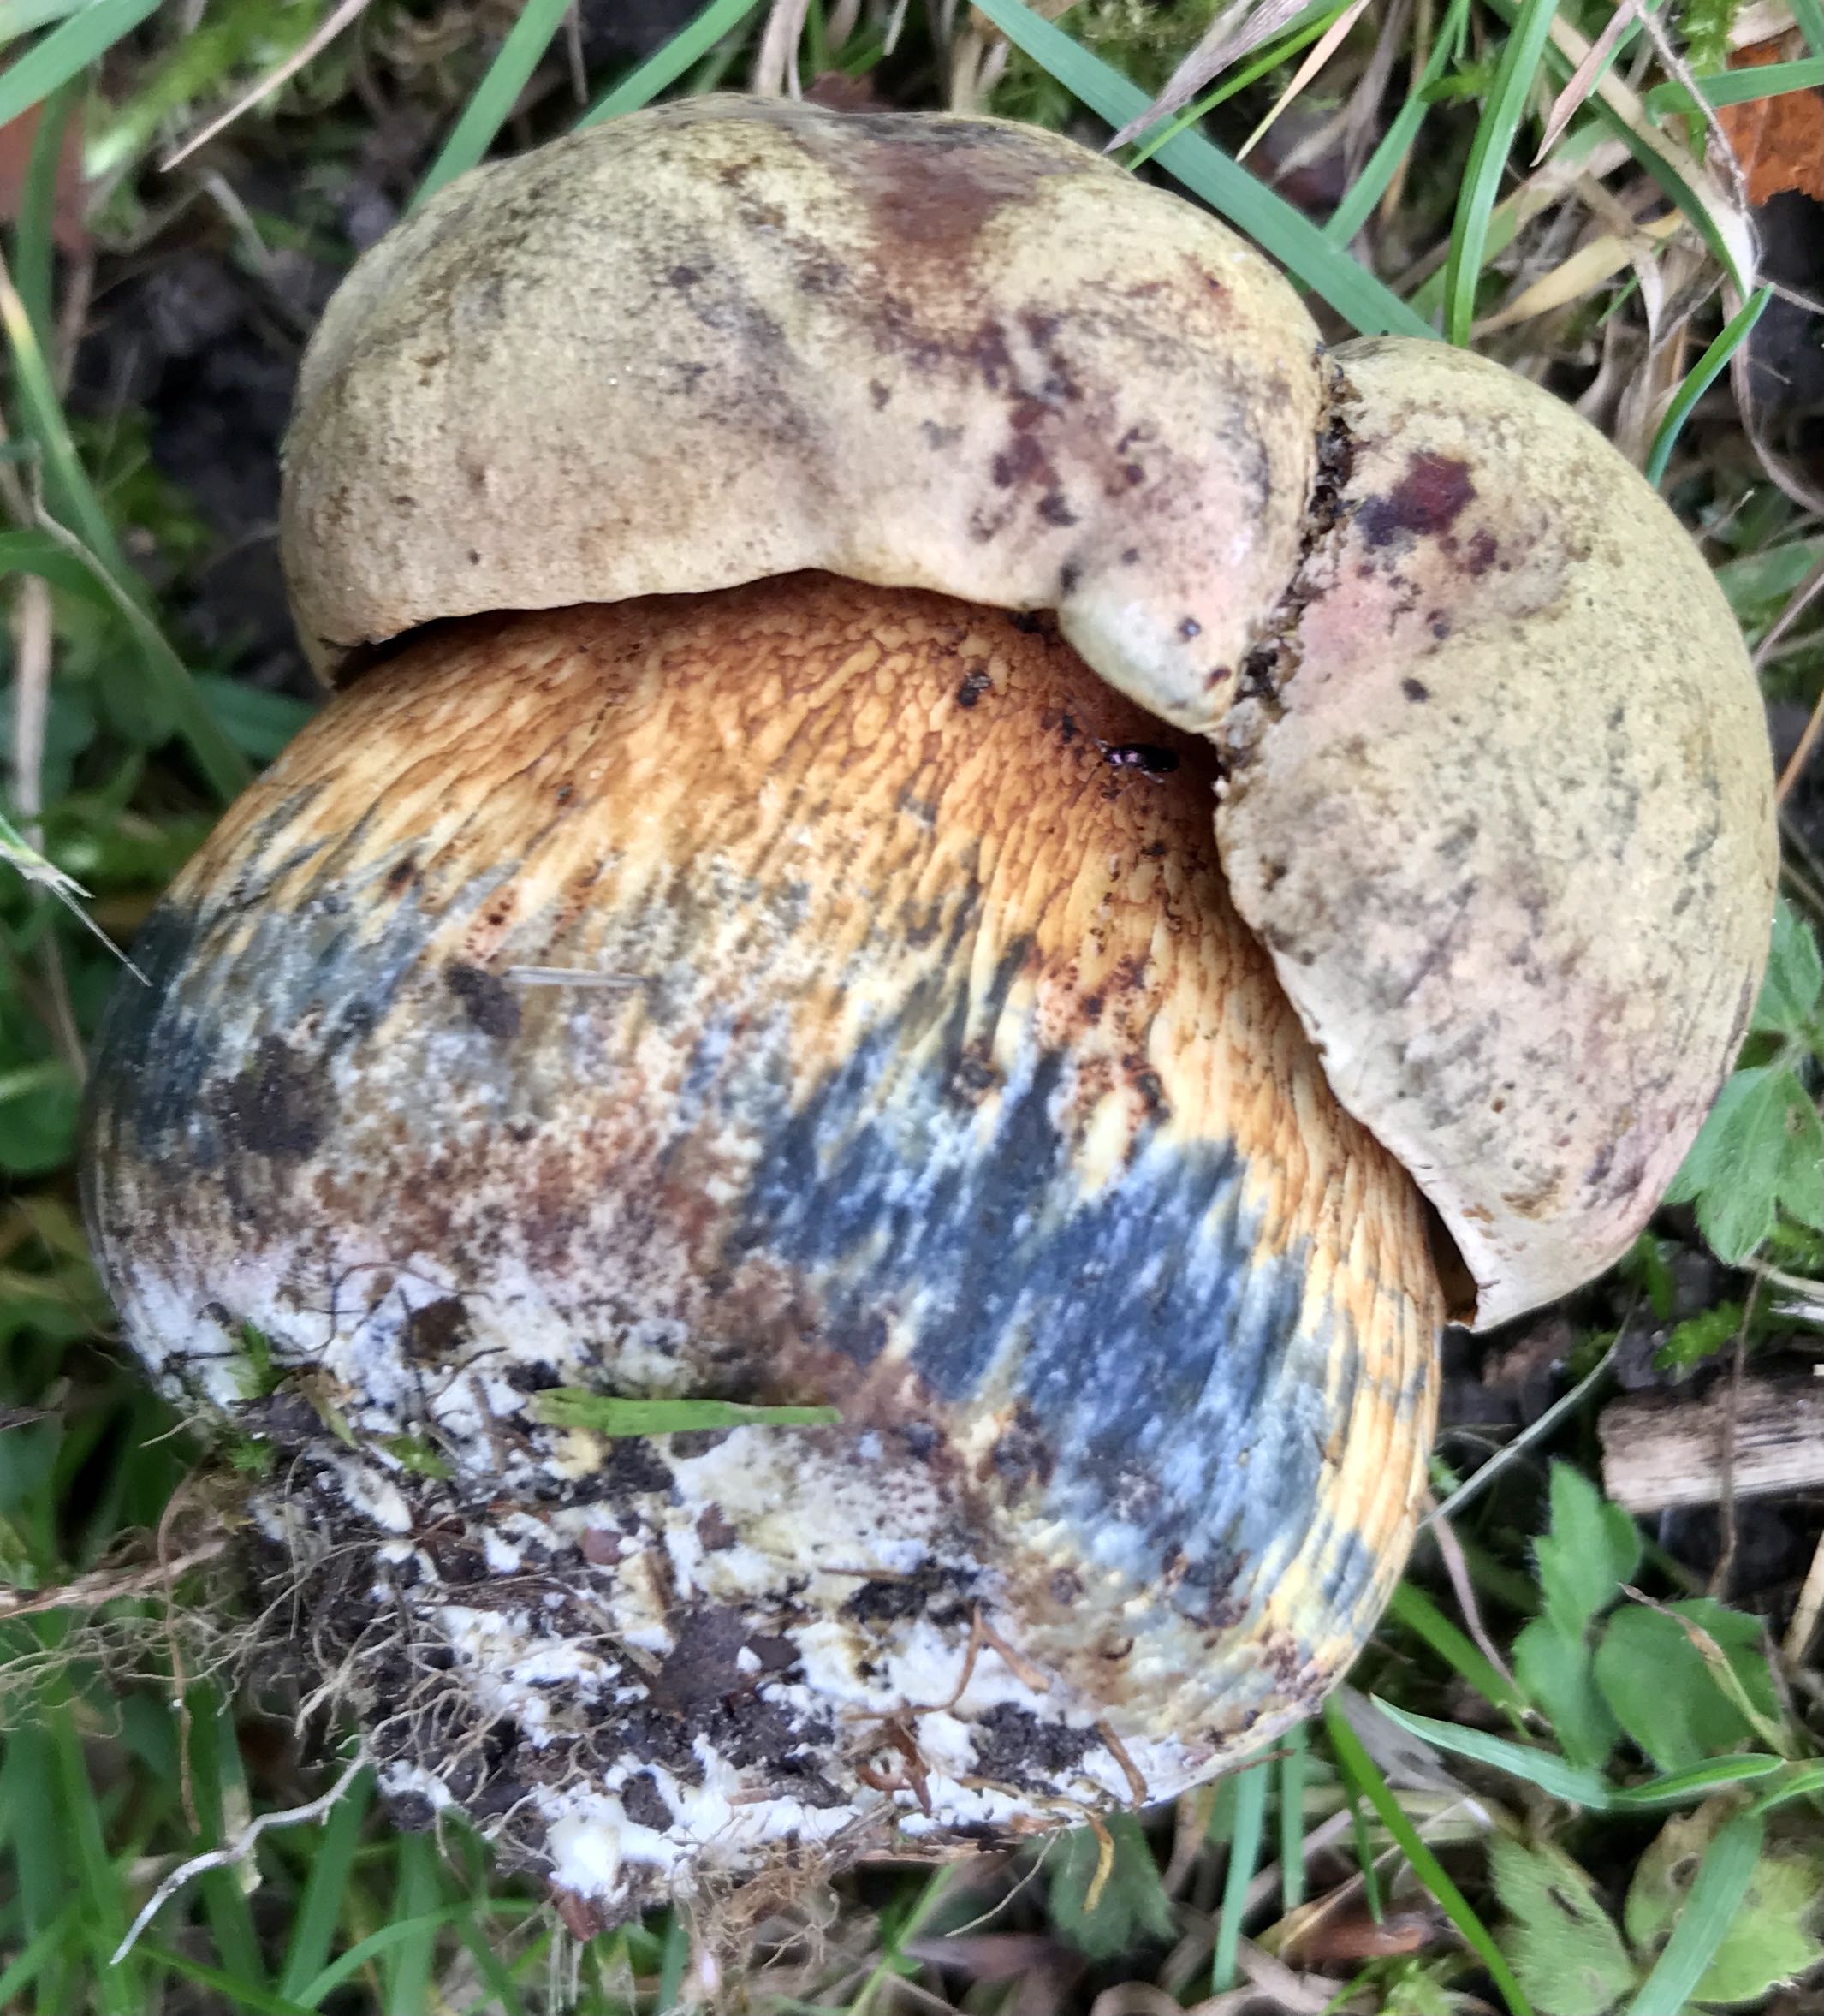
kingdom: Fungi
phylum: Basidiomycota
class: Agaricomycetes
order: Boletales
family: Boletaceae
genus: Suillellus
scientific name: Suillellus luridus
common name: netstokket indigorørhat
